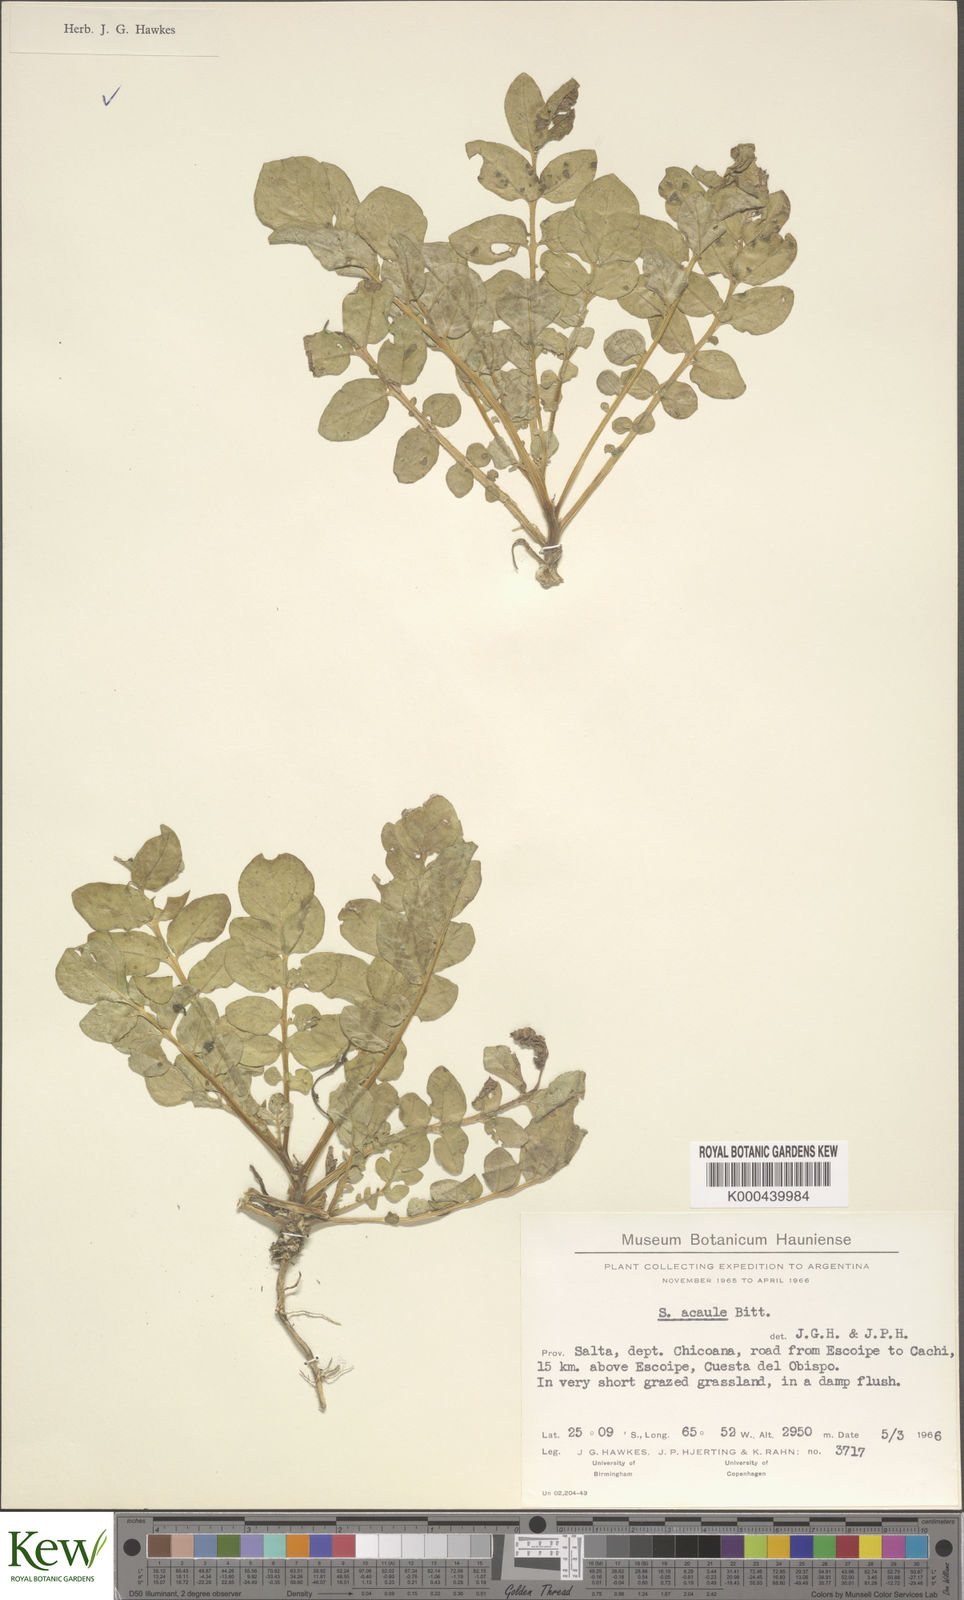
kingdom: Plantae
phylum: Tracheophyta
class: Magnoliopsida
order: Solanales
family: Solanaceae
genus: Solanum
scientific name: Solanum acaule
